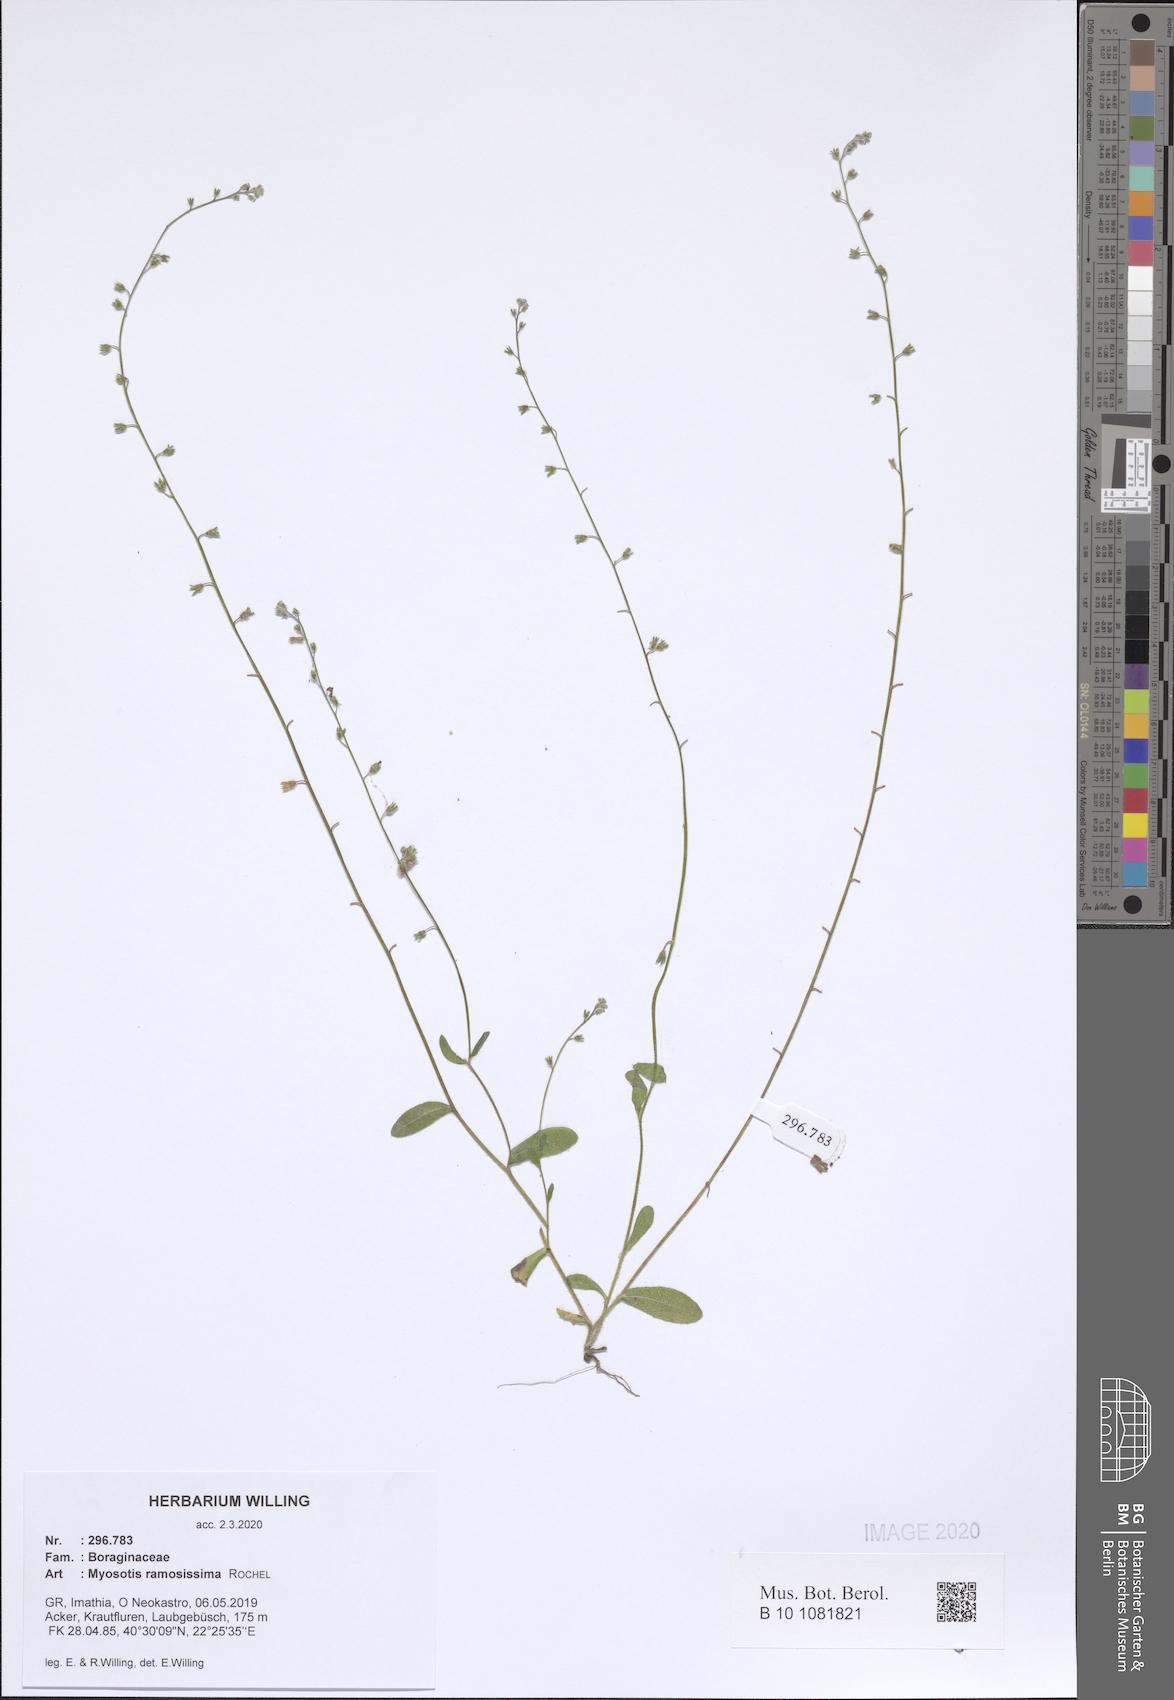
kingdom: Plantae
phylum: Tracheophyta
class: Magnoliopsida
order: Boraginales
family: Boraginaceae
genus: Myosotis
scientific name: Myosotis ramosissima
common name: Early forget-me-not
